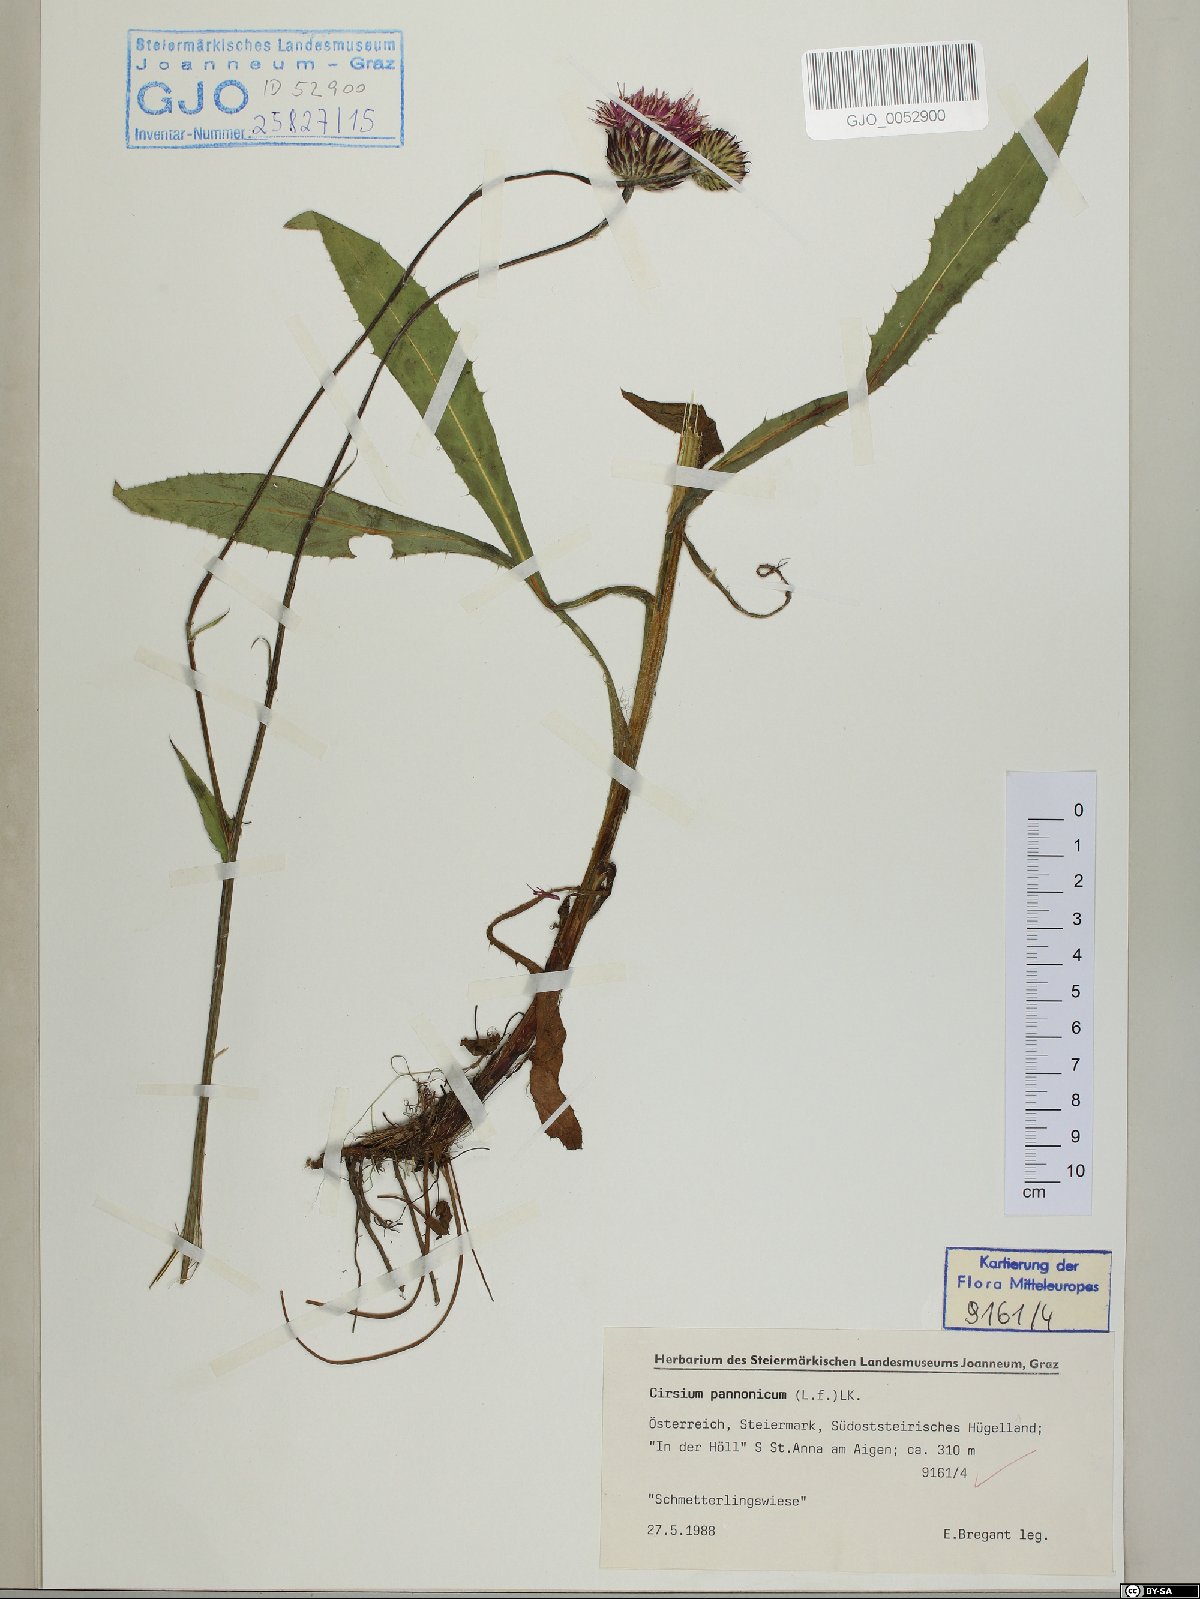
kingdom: Plantae
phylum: Tracheophyta
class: Magnoliopsida
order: Asterales
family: Asteraceae
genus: Cirsium
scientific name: Cirsium pannonicum
